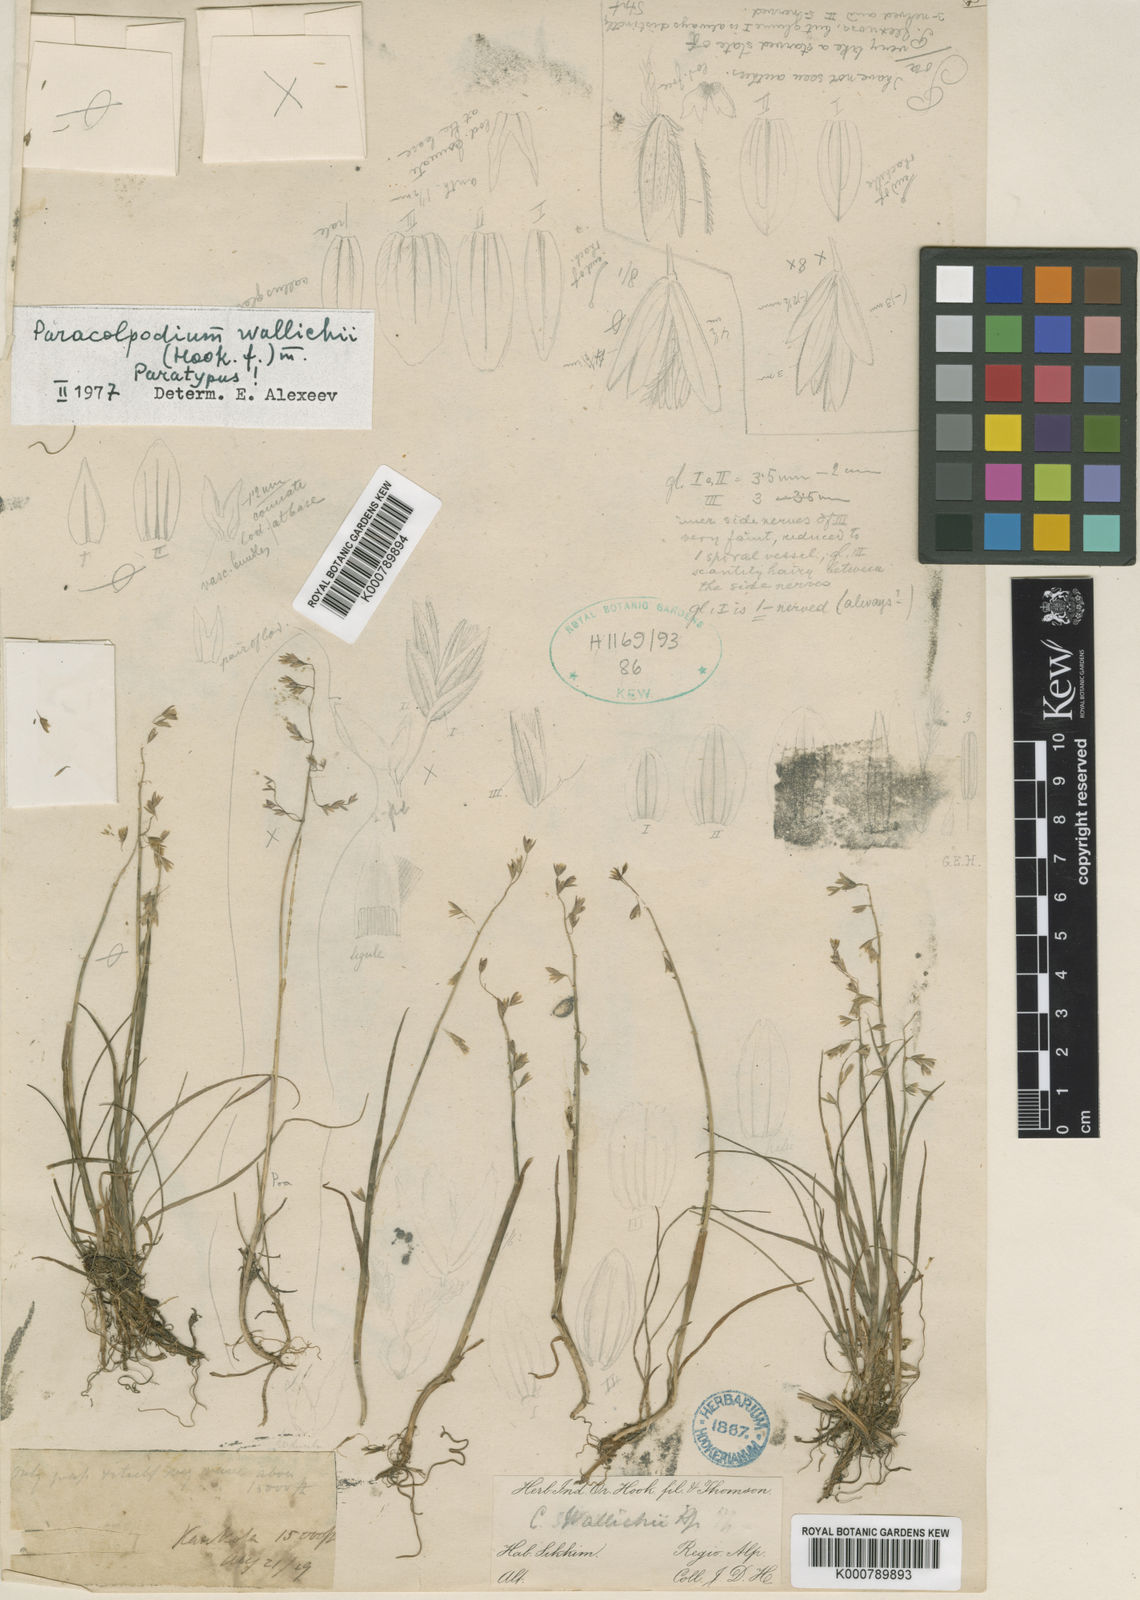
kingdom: Plantae
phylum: Tracheophyta
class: Liliopsida
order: Poales
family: Poaceae
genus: Paracolpodium
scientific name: Paracolpodium wallichii
